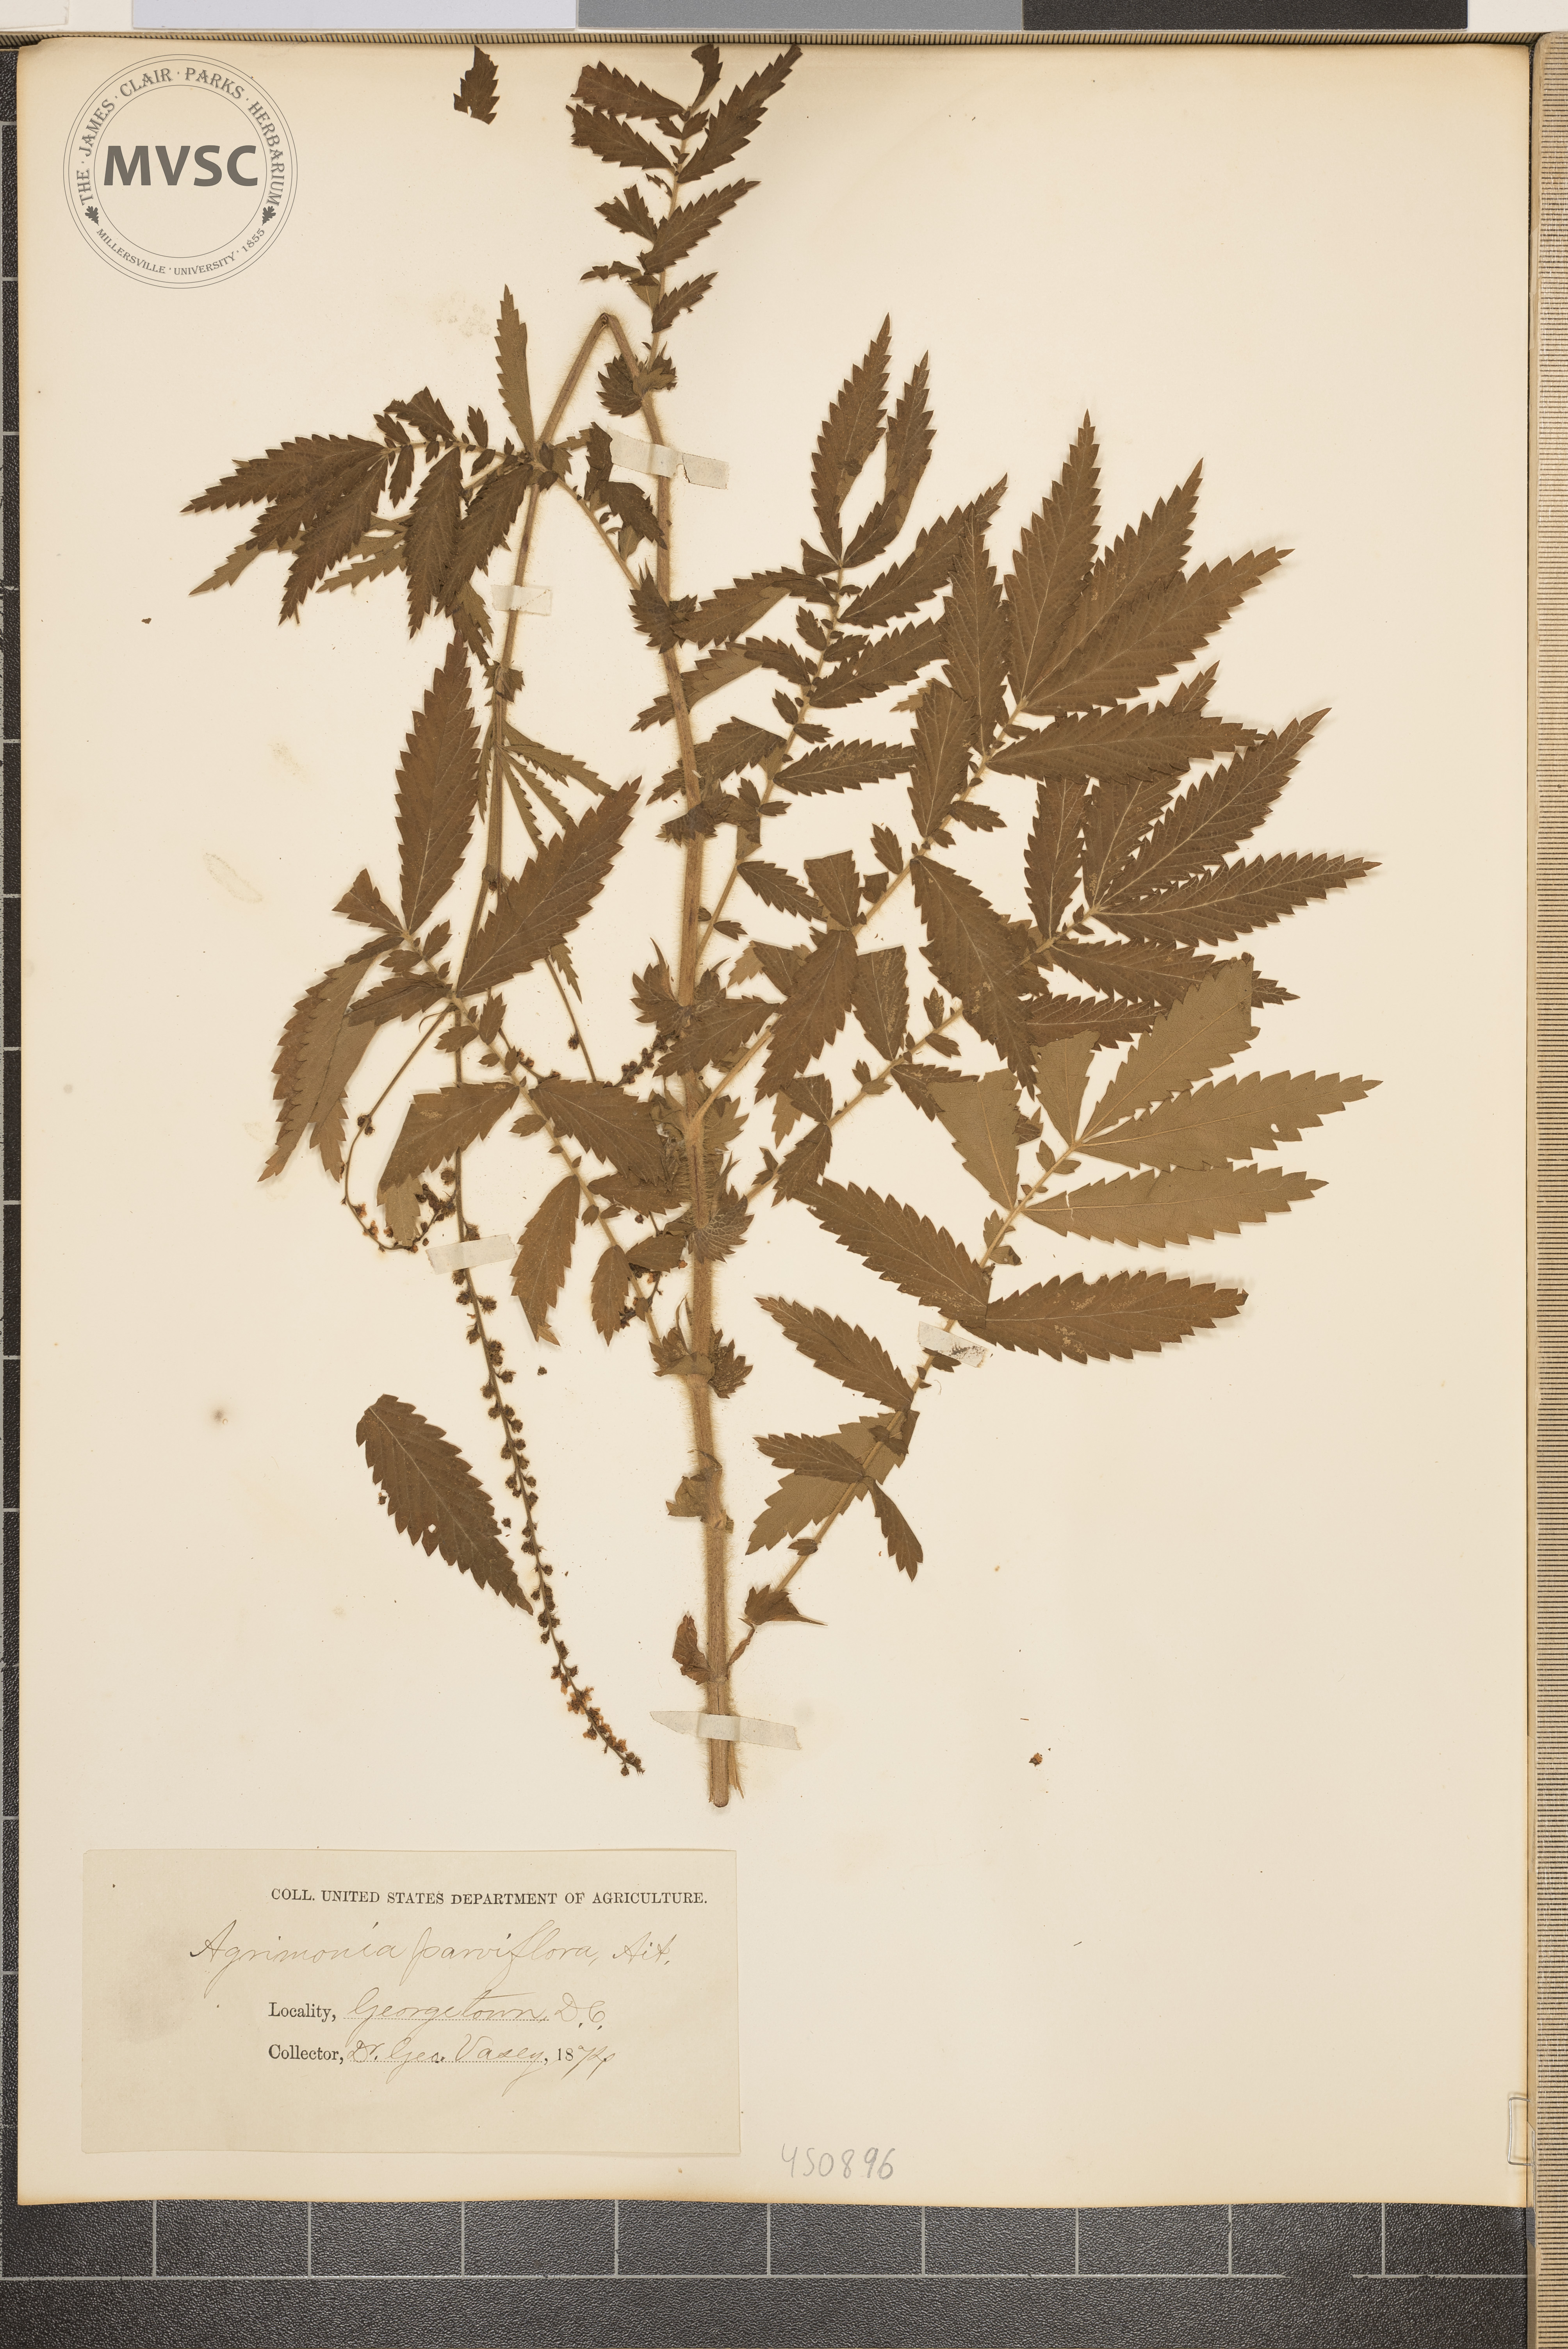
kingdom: Plantae
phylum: Tracheophyta
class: Magnoliopsida
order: Rosales
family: Rosaceae
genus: Agrimonia
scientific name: Agrimonia parviflora
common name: Harvest-lice
